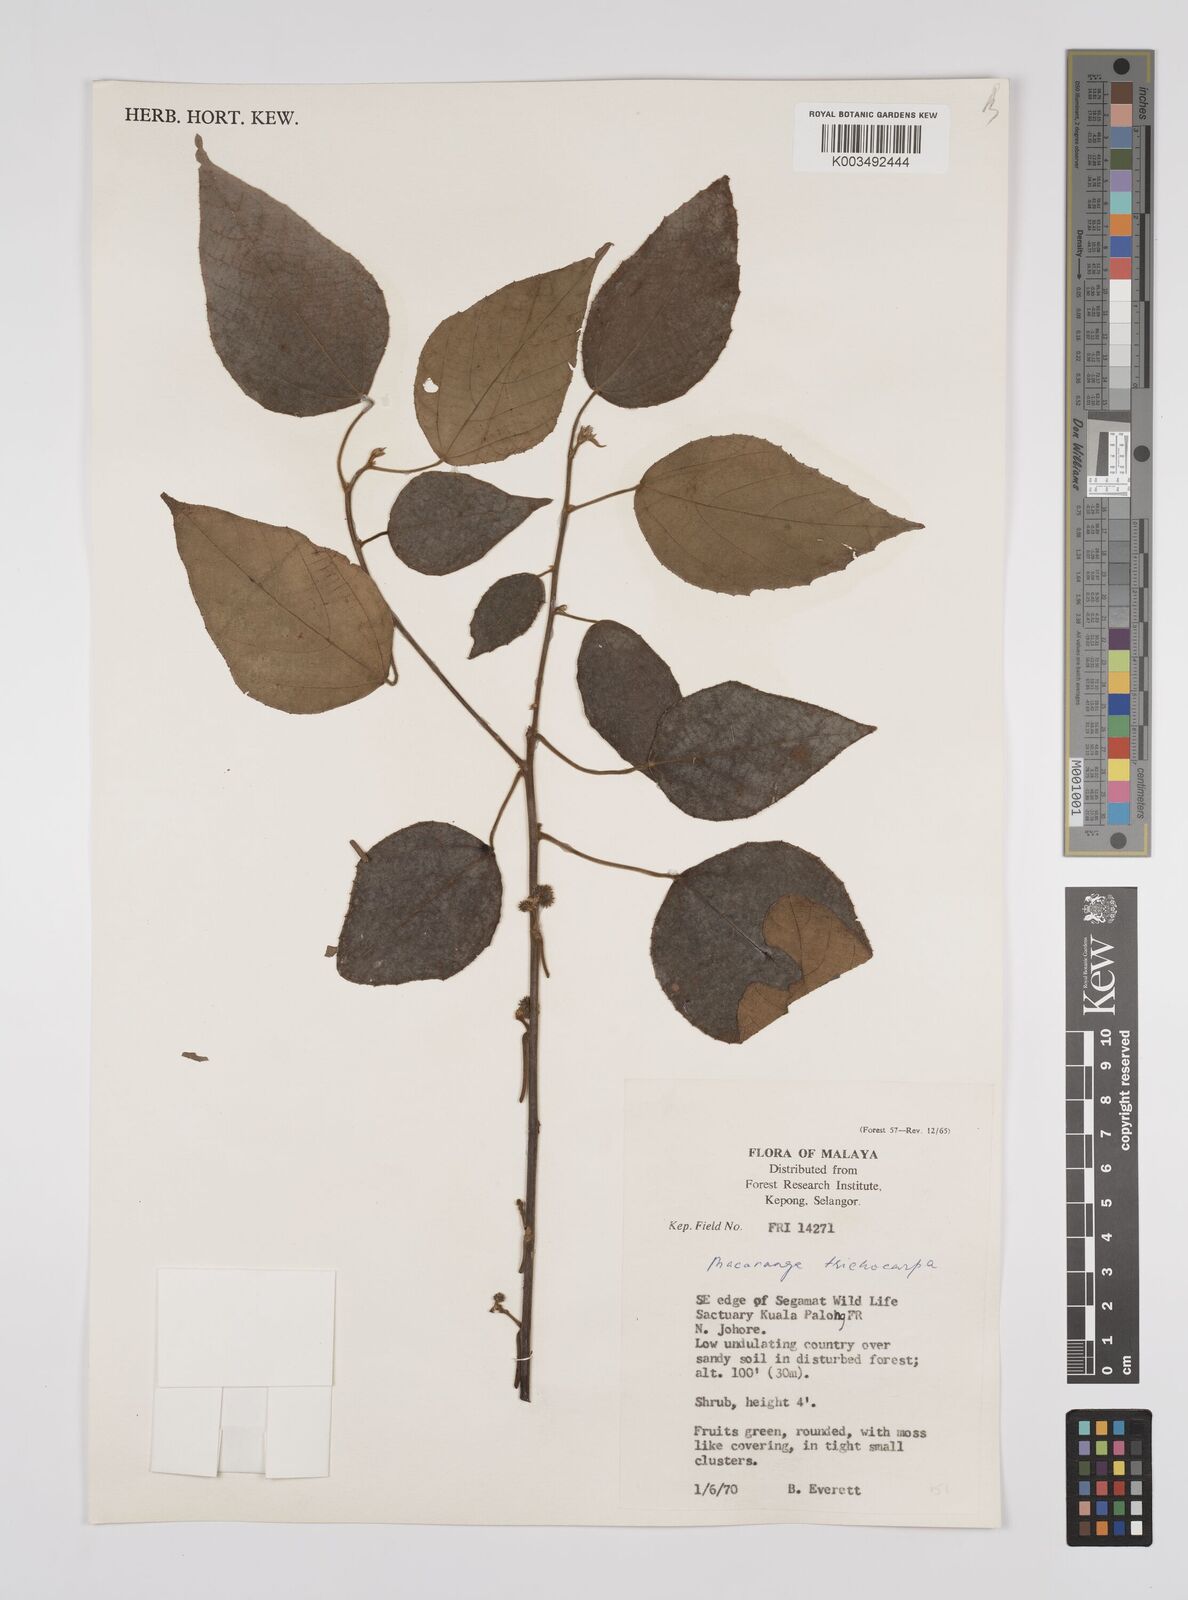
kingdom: Plantae
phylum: Tracheophyta
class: Magnoliopsida
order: Malpighiales
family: Euphorbiaceae
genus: Macaranga
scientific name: Macaranga trichocarpa
